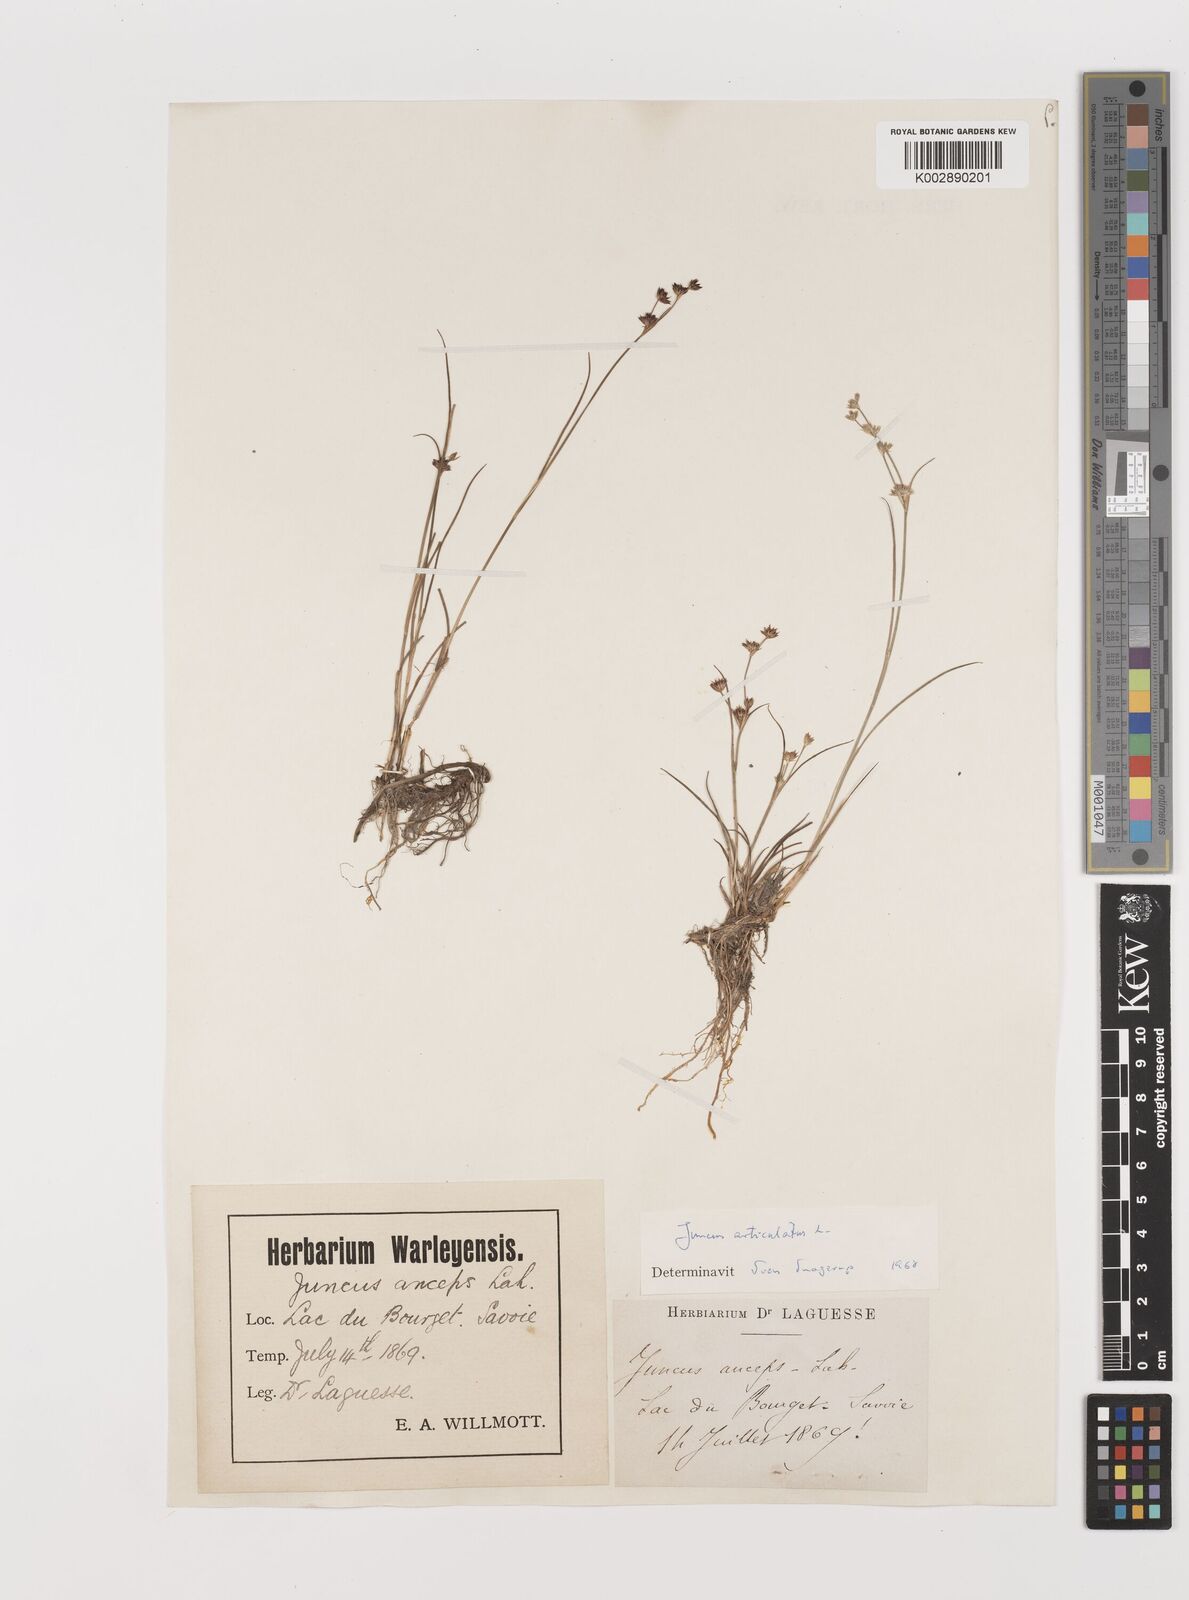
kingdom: Plantae
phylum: Tracheophyta
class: Liliopsida
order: Poales
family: Juncaceae
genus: Juncus
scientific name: Juncus articulatus
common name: Jointed rush
